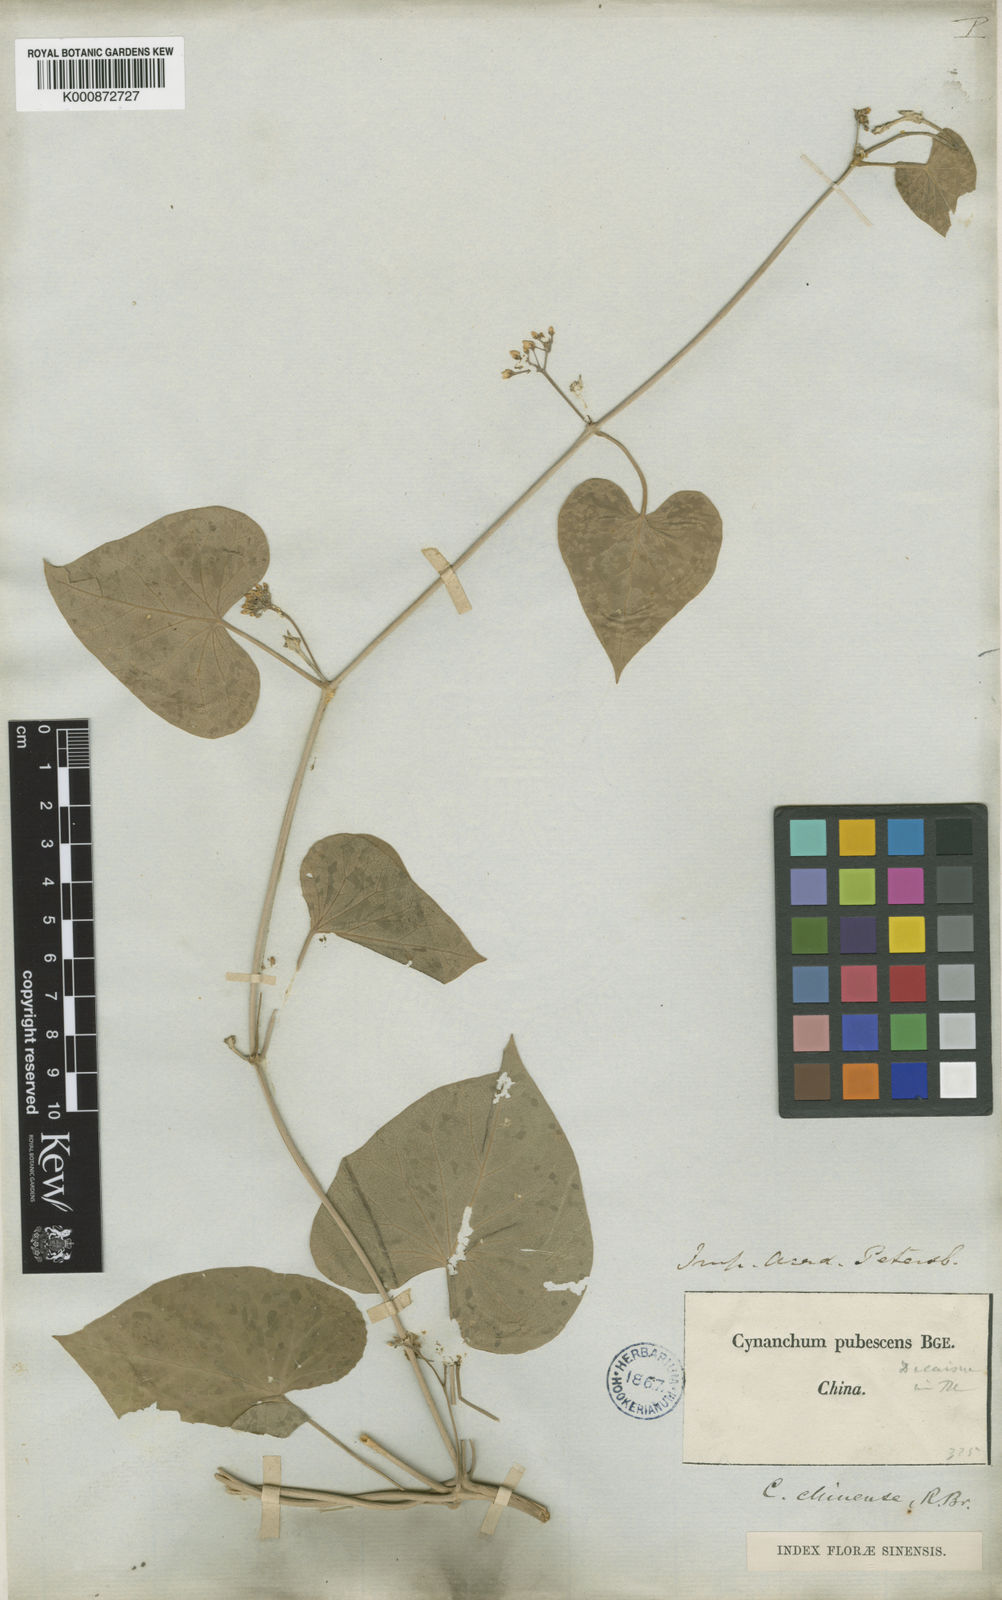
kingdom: Plantae
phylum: Tracheophyta
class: Magnoliopsida
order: Gentianales
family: Apocynaceae
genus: Vincetoxicum
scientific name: Vincetoxicum pubescens
